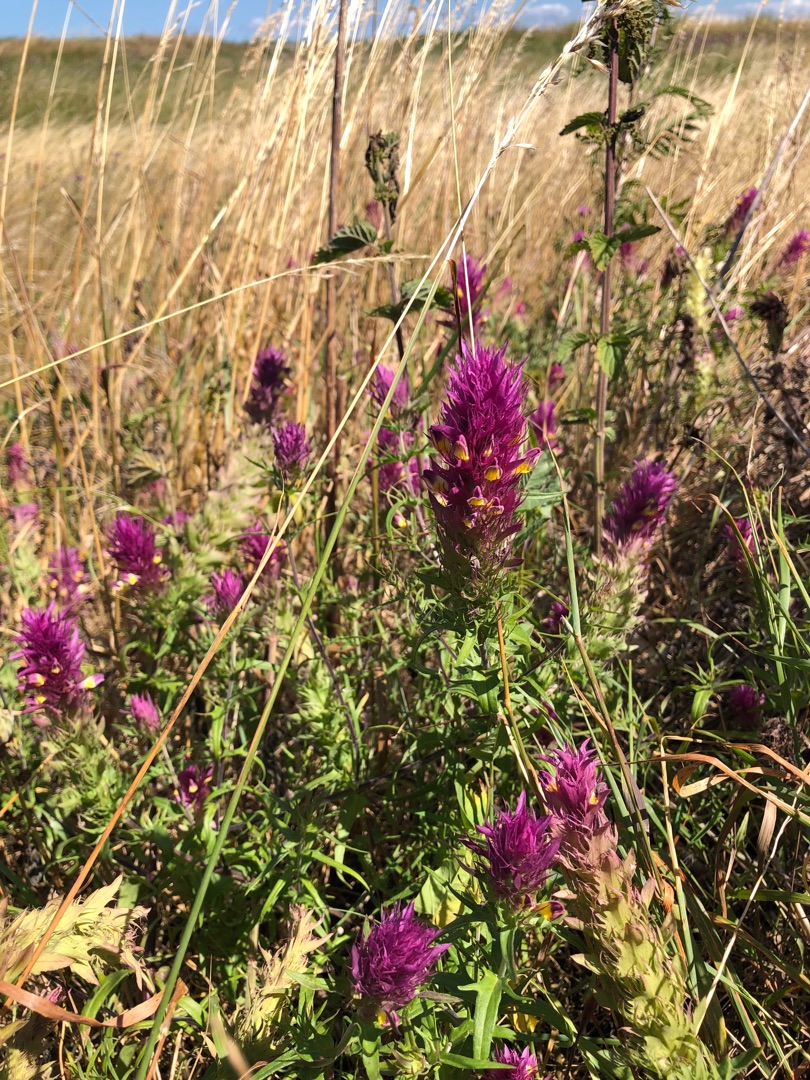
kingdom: Plantae
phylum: Tracheophyta
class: Magnoliopsida
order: Lamiales
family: Orobanchaceae
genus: Melampyrum
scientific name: Melampyrum arvense
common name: Ager-kohvede
